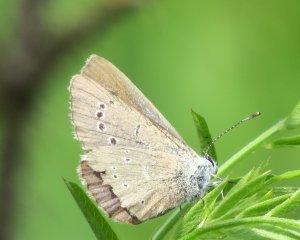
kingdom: Animalia
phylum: Arthropoda
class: Insecta
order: Lepidoptera
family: Lycaenidae
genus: Glaucopsyche
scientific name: Glaucopsyche lygdamus
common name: Silvery Blue
